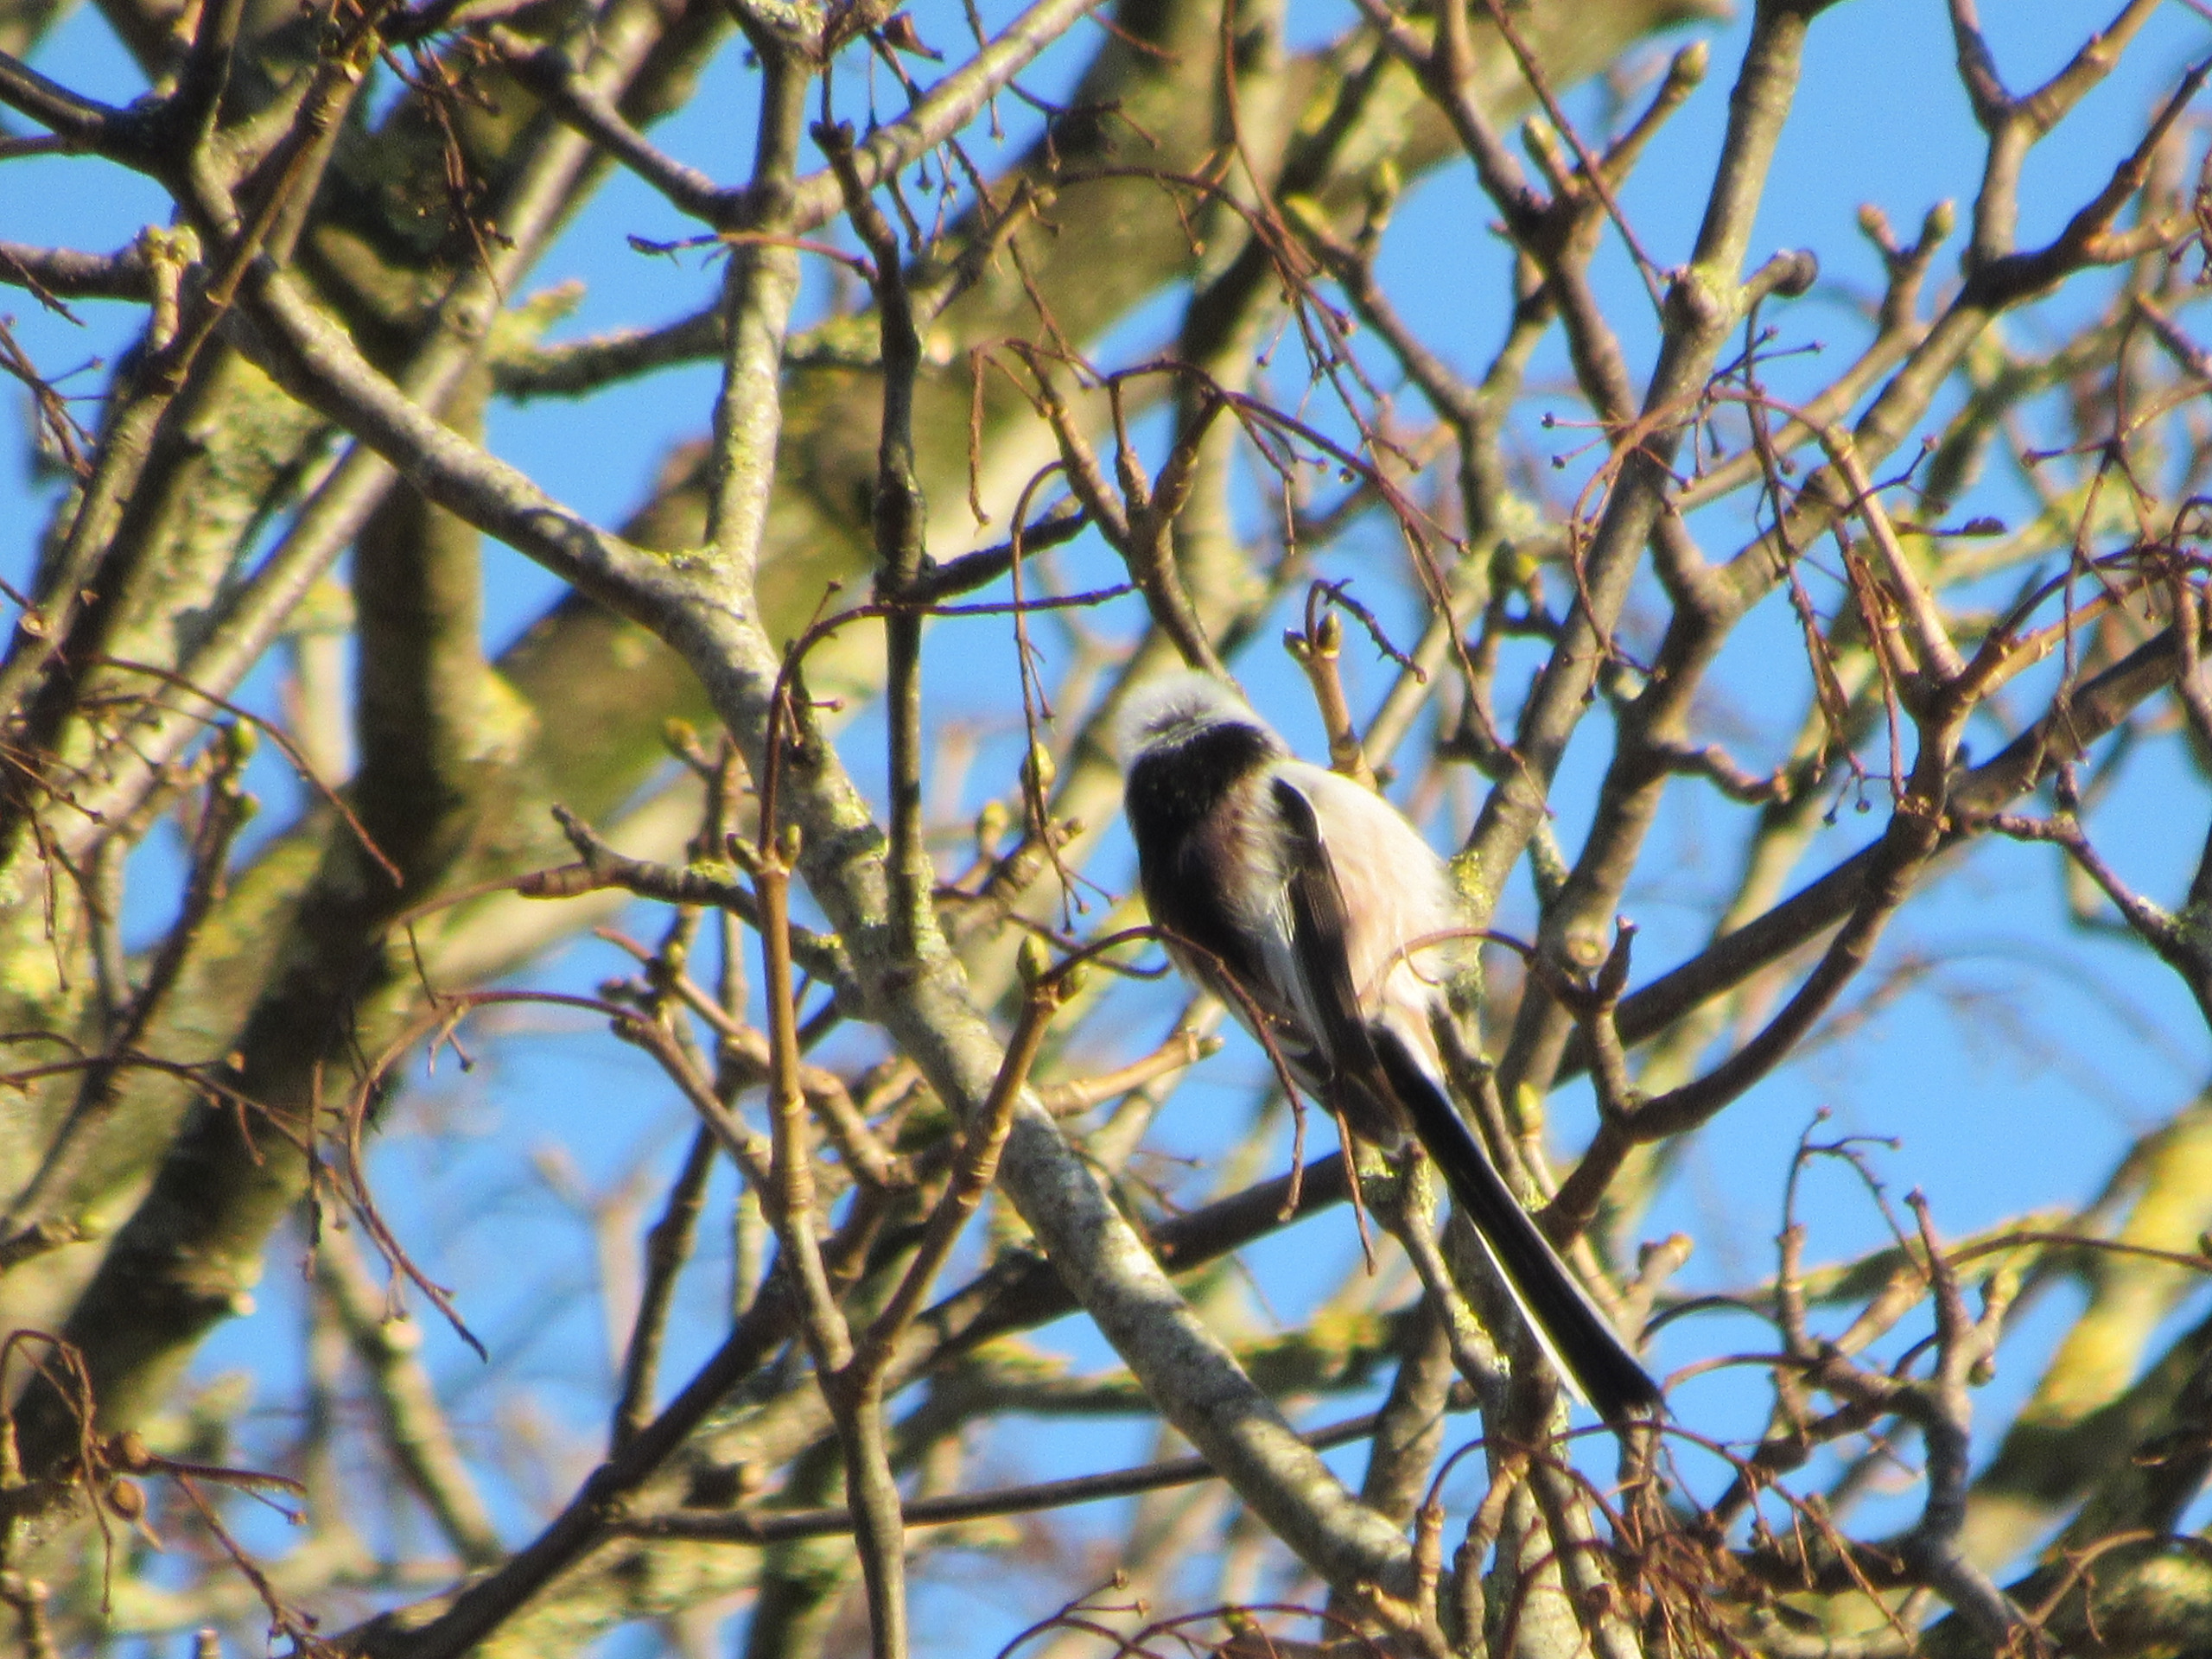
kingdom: Animalia
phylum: Chordata
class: Aves
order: Passeriformes
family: Aegithalidae
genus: Aegithalos
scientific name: Aegithalos caudatus
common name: Halemejse
